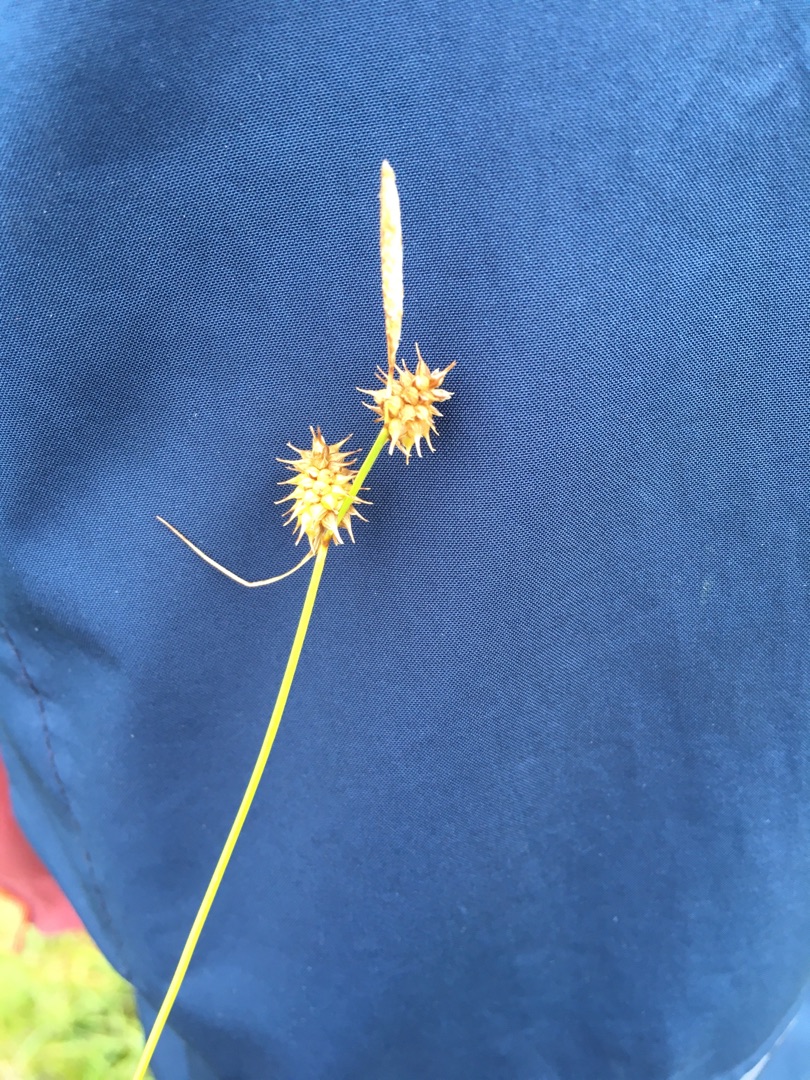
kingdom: Plantae
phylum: Tracheophyta
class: Liliopsida
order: Poales
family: Cyperaceae
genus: Carex
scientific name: Carex lepidocarpa
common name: Krognæb-star
